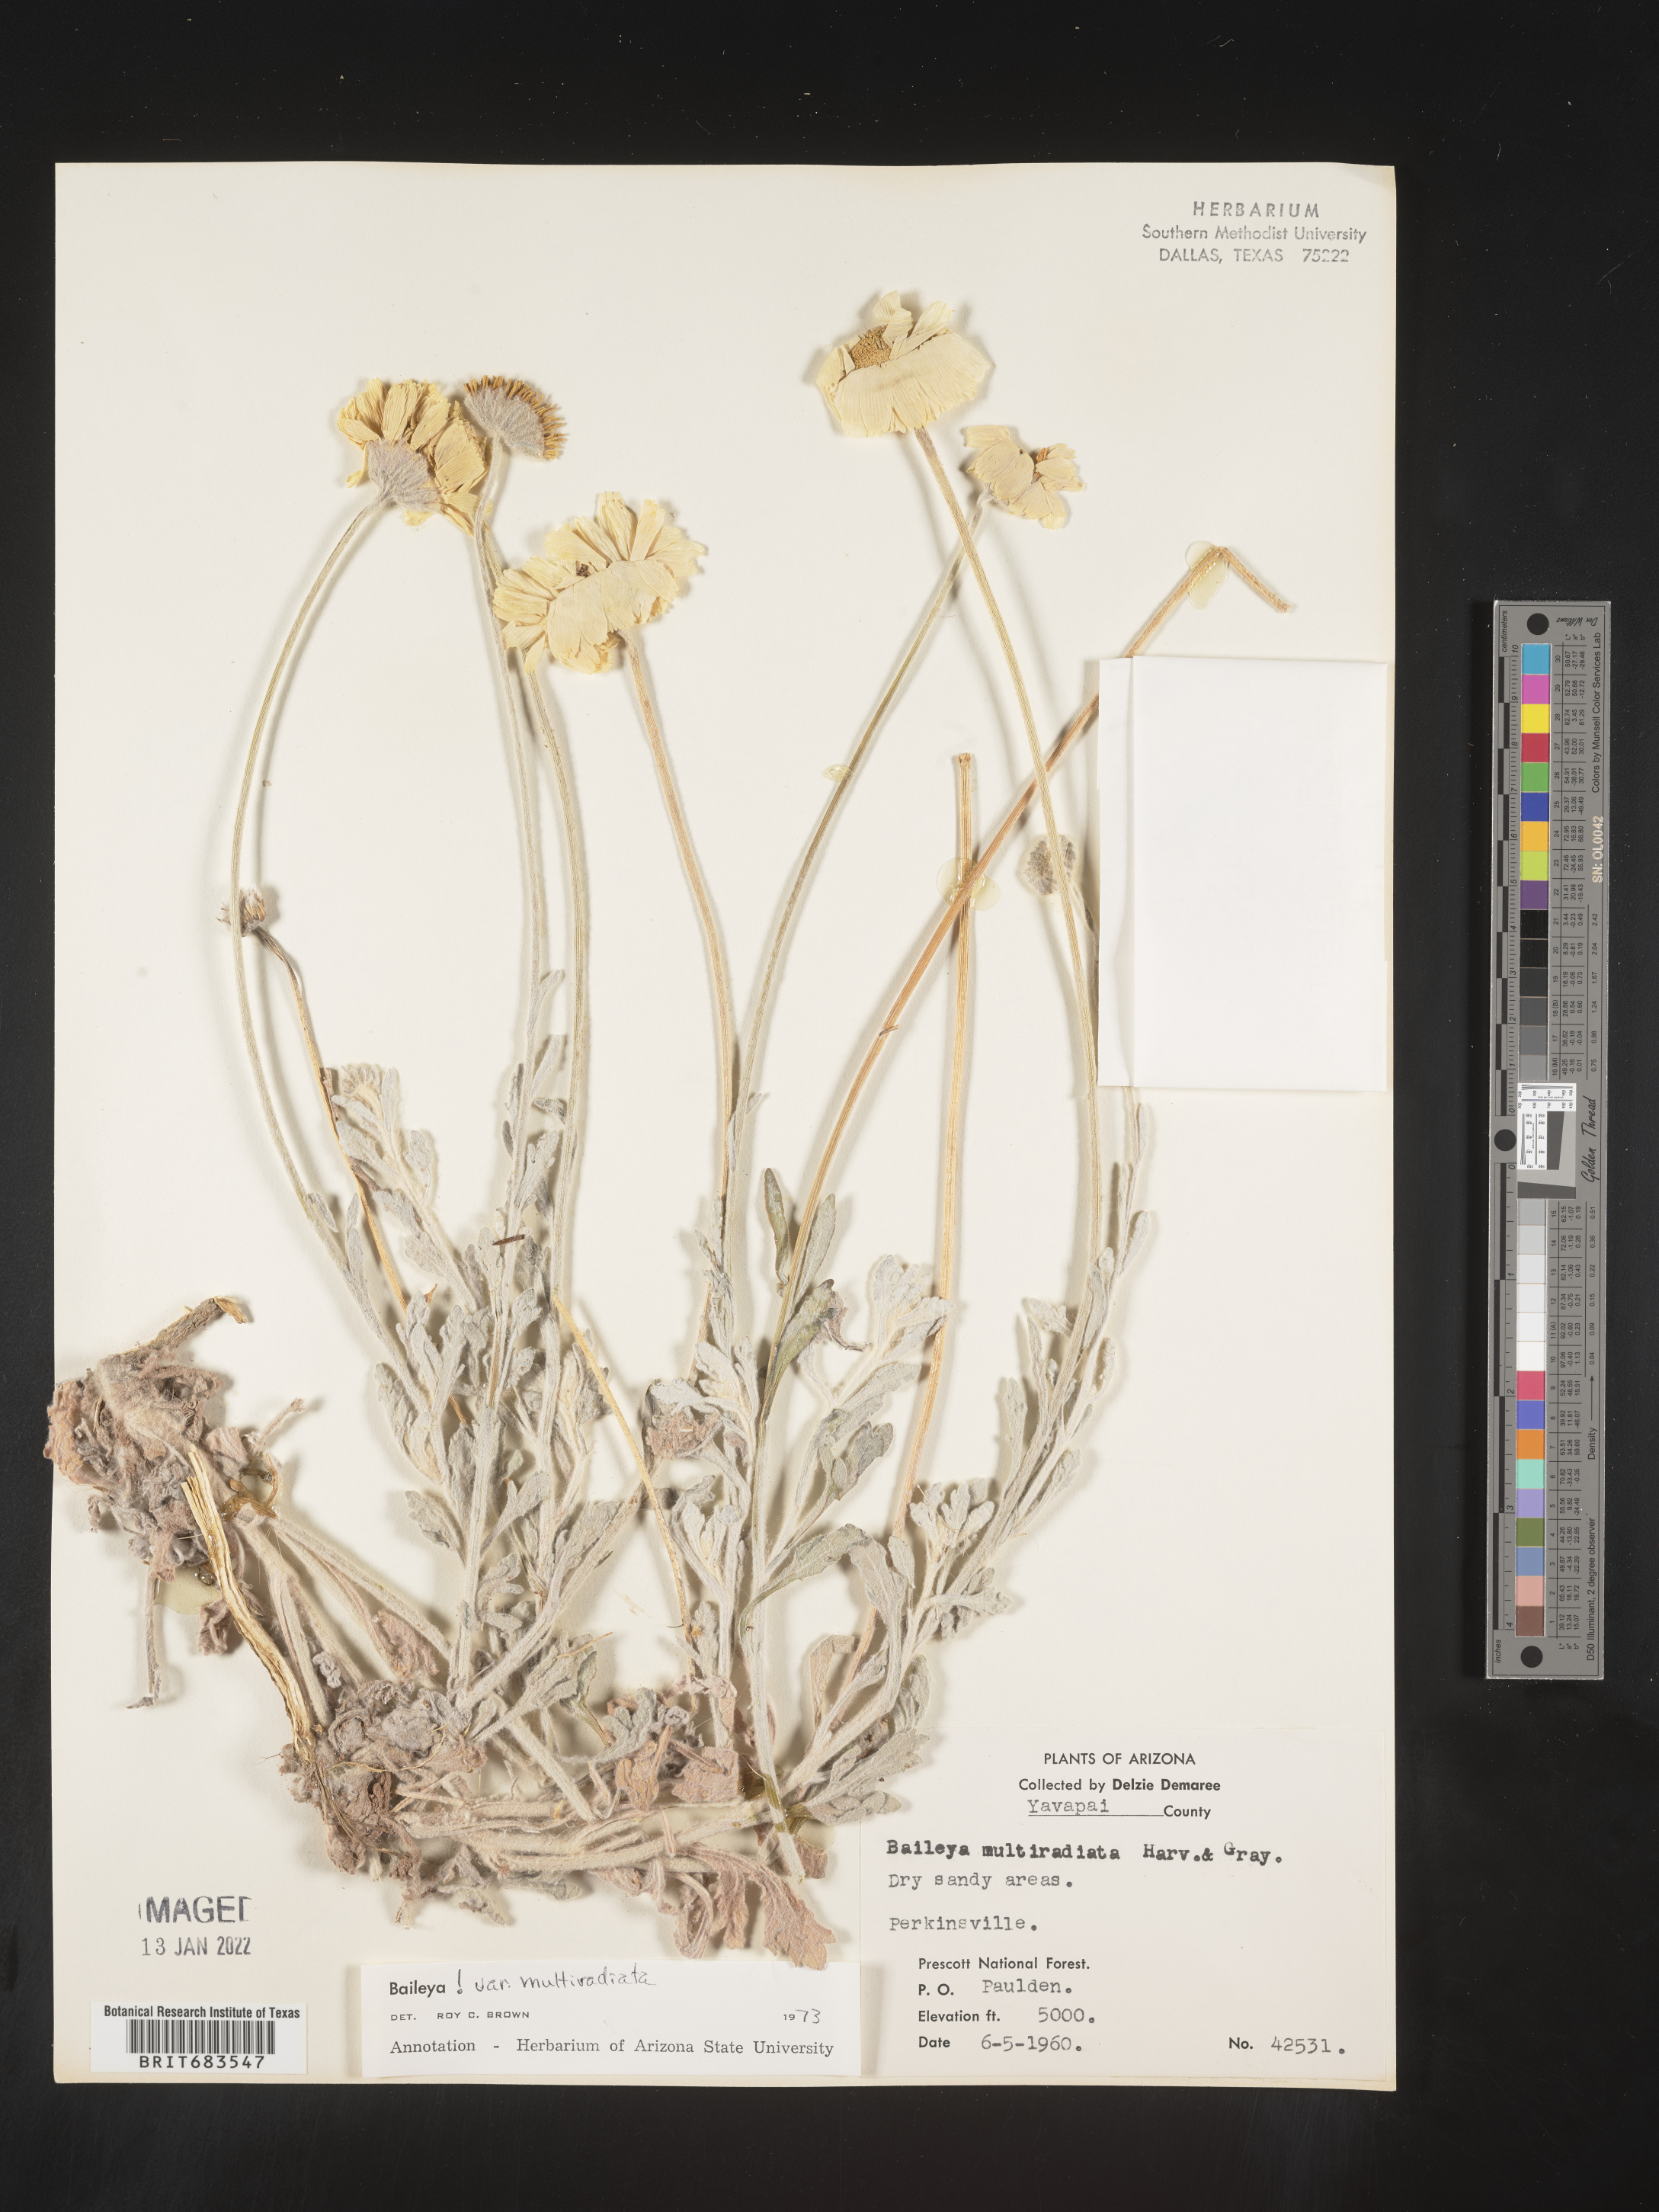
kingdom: Plantae
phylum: Tracheophyta
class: Magnoliopsida
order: Asterales
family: Asteraceae
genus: Baileya
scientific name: Baileya multiradiata
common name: Desert-marigold
